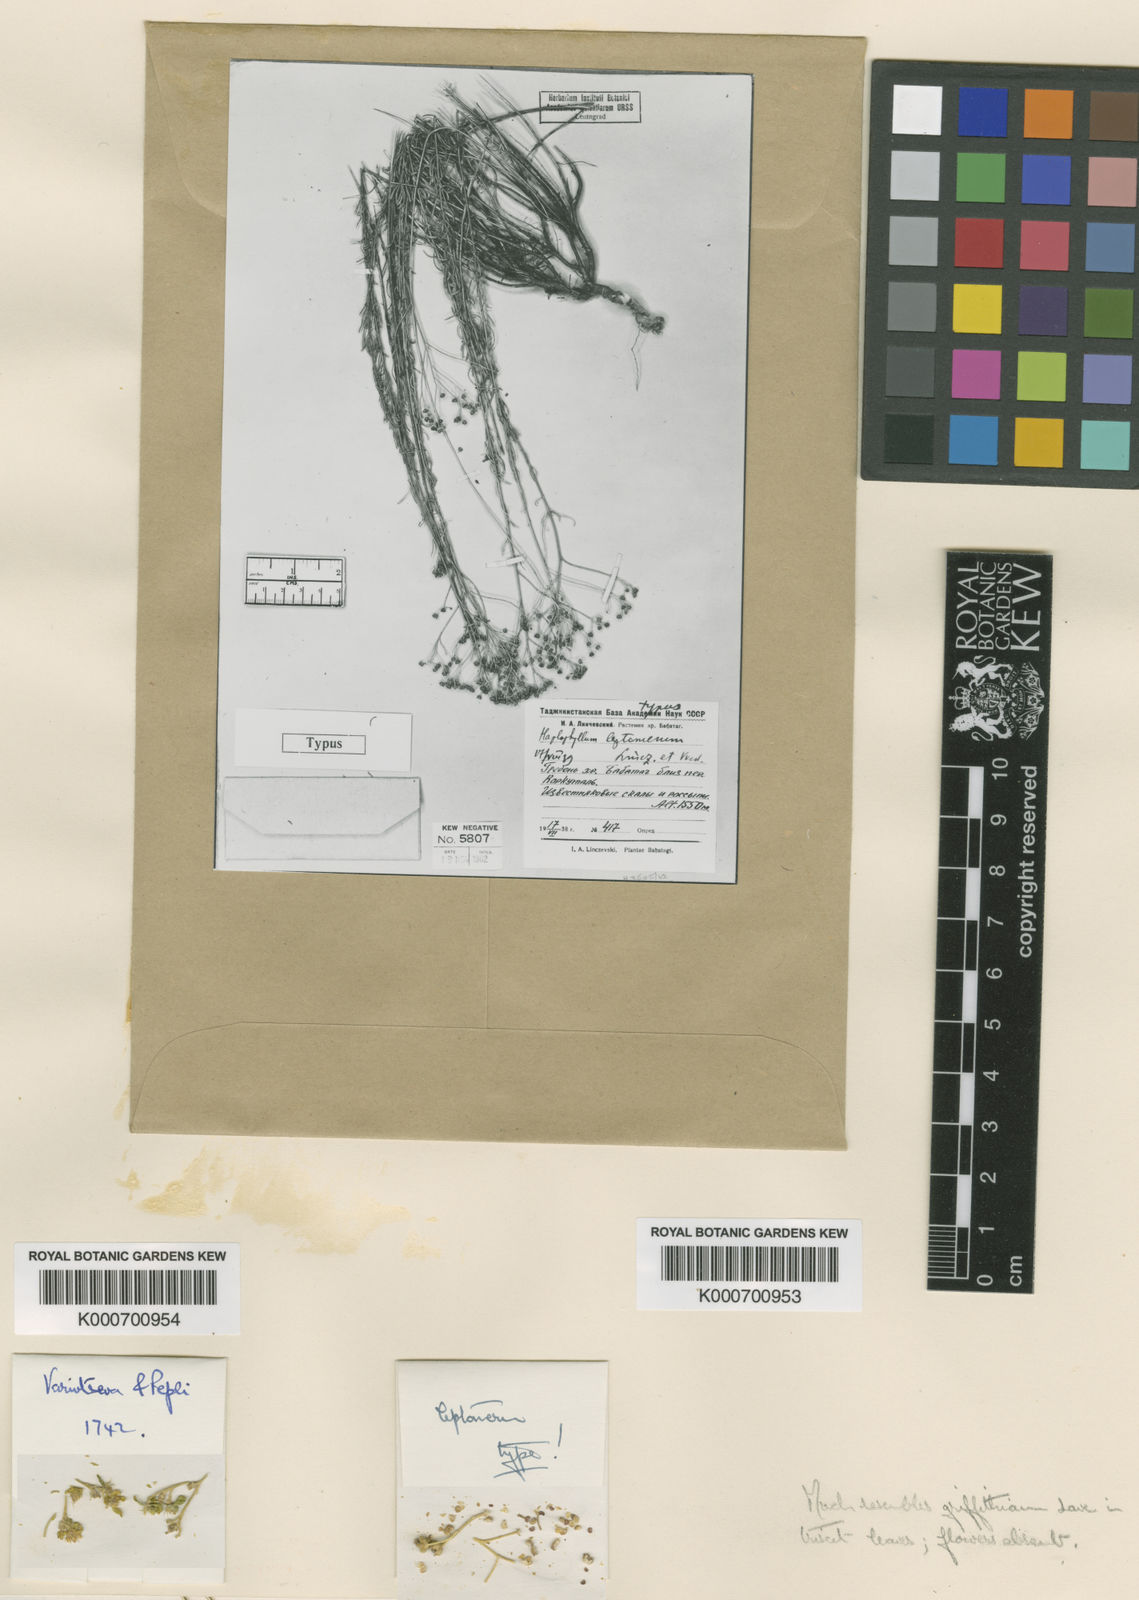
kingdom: Plantae
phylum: Tracheophyta
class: Magnoliopsida
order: Sapindales
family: Rutaceae
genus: Haplophyllum
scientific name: Haplophyllum griffithianum
